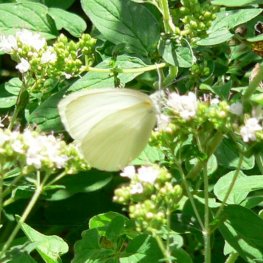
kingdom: Animalia
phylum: Arthropoda
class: Insecta
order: Lepidoptera
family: Pieridae
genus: Pieris
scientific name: Pieris oleracea
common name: Mustard White
